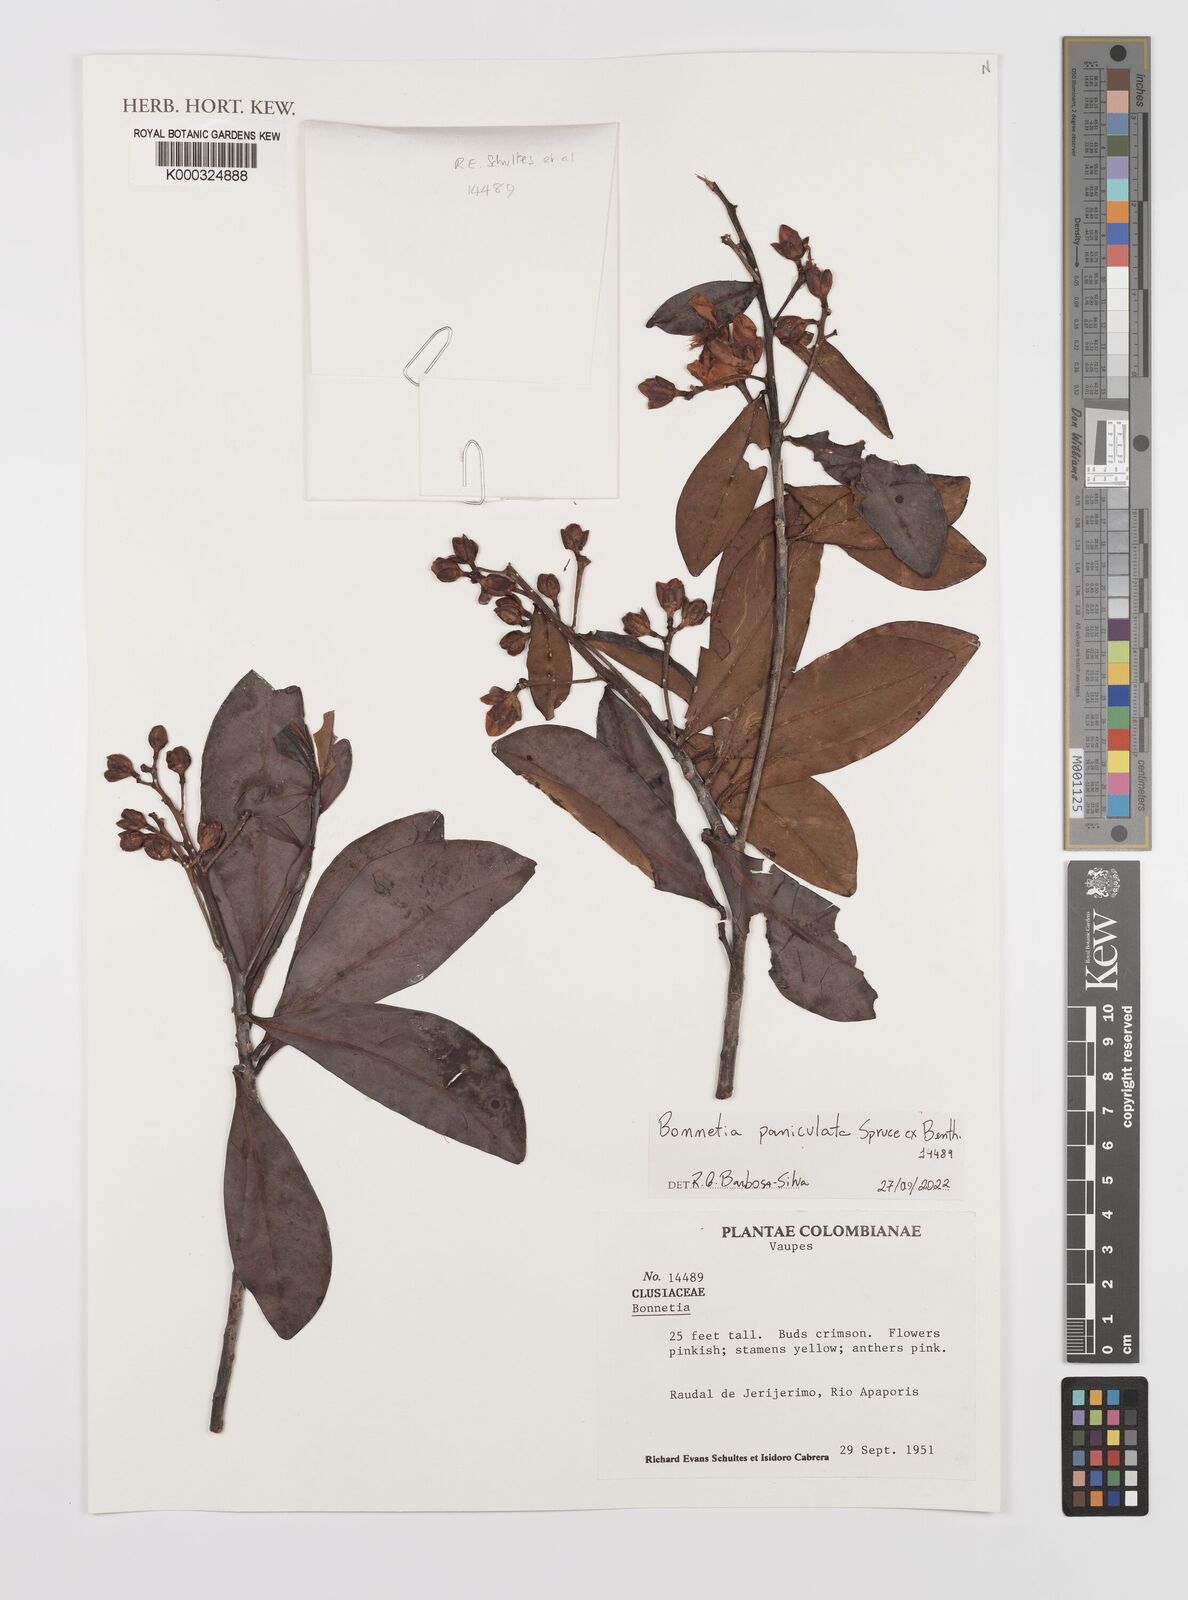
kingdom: Plantae
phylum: Tracheophyta
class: Magnoliopsida
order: Malpighiales
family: Bonnetiaceae
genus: Bonnetia
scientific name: Bonnetia
